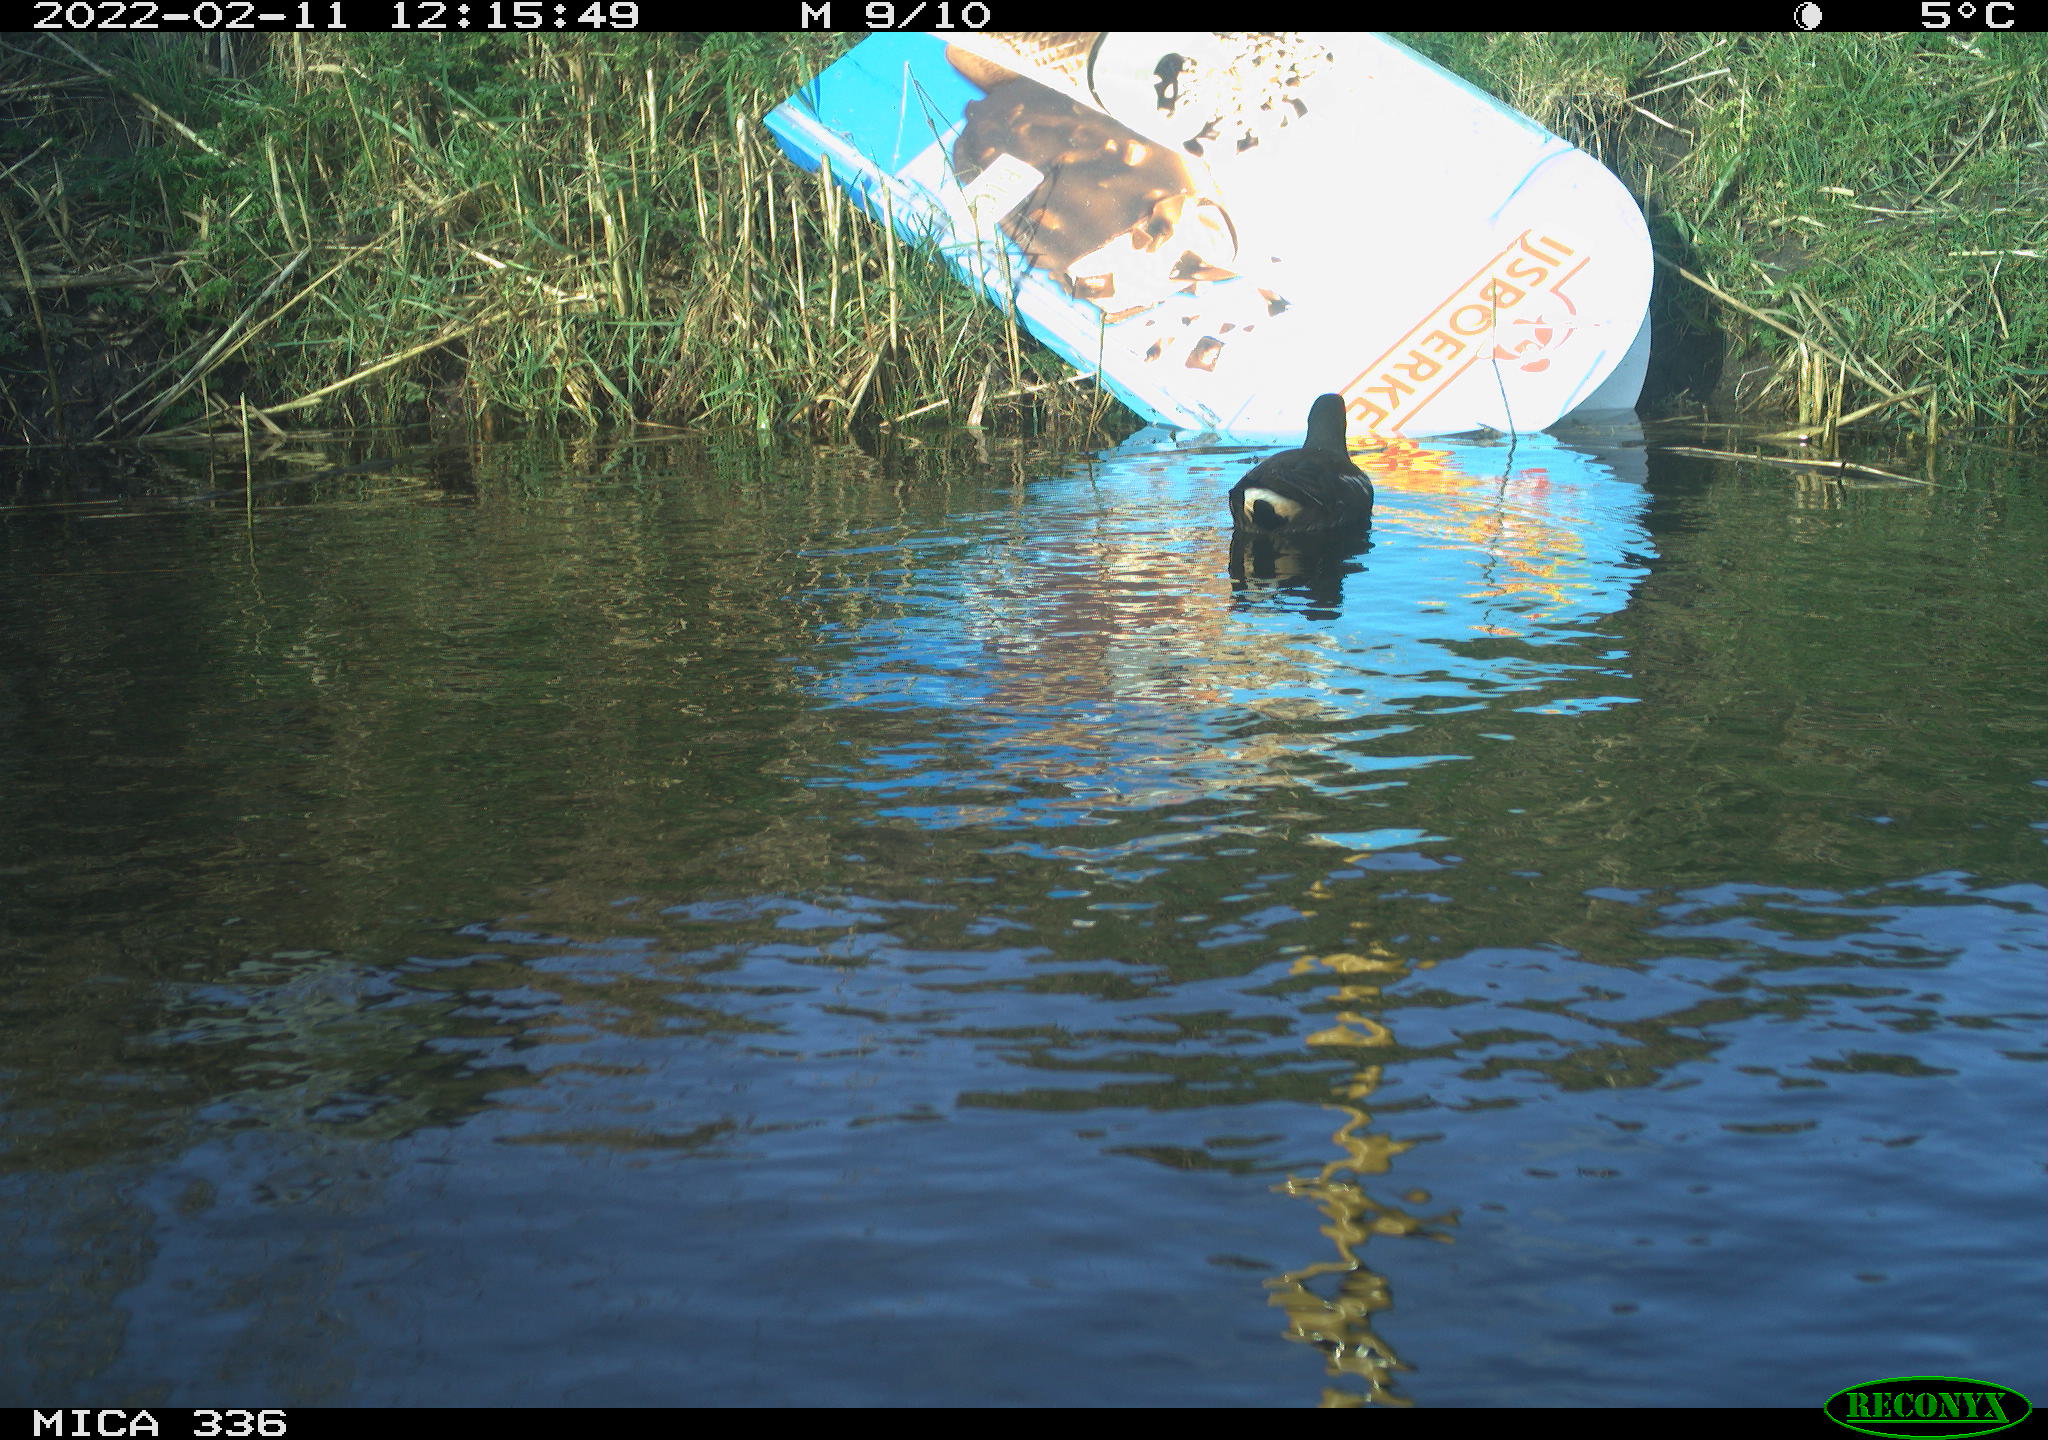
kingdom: Animalia
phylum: Chordata
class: Aves
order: Gruiformes
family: Rallidae
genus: Gallinula
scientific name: Gallinula chloropus
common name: Common moorhen
